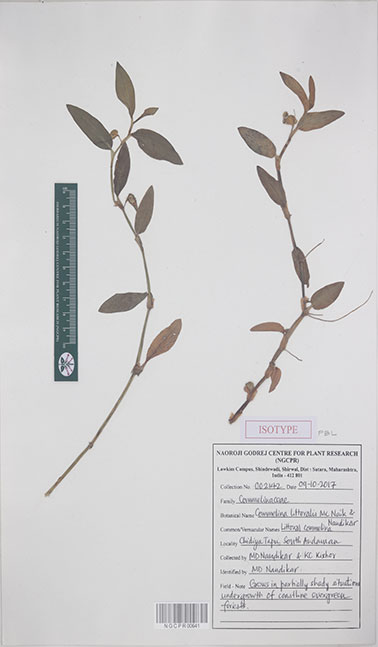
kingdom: Plantae
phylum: Tracheophyta
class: Liliopsida
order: Commelinales
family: Commelinaceae
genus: Commelina
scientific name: Commelina littoralis
